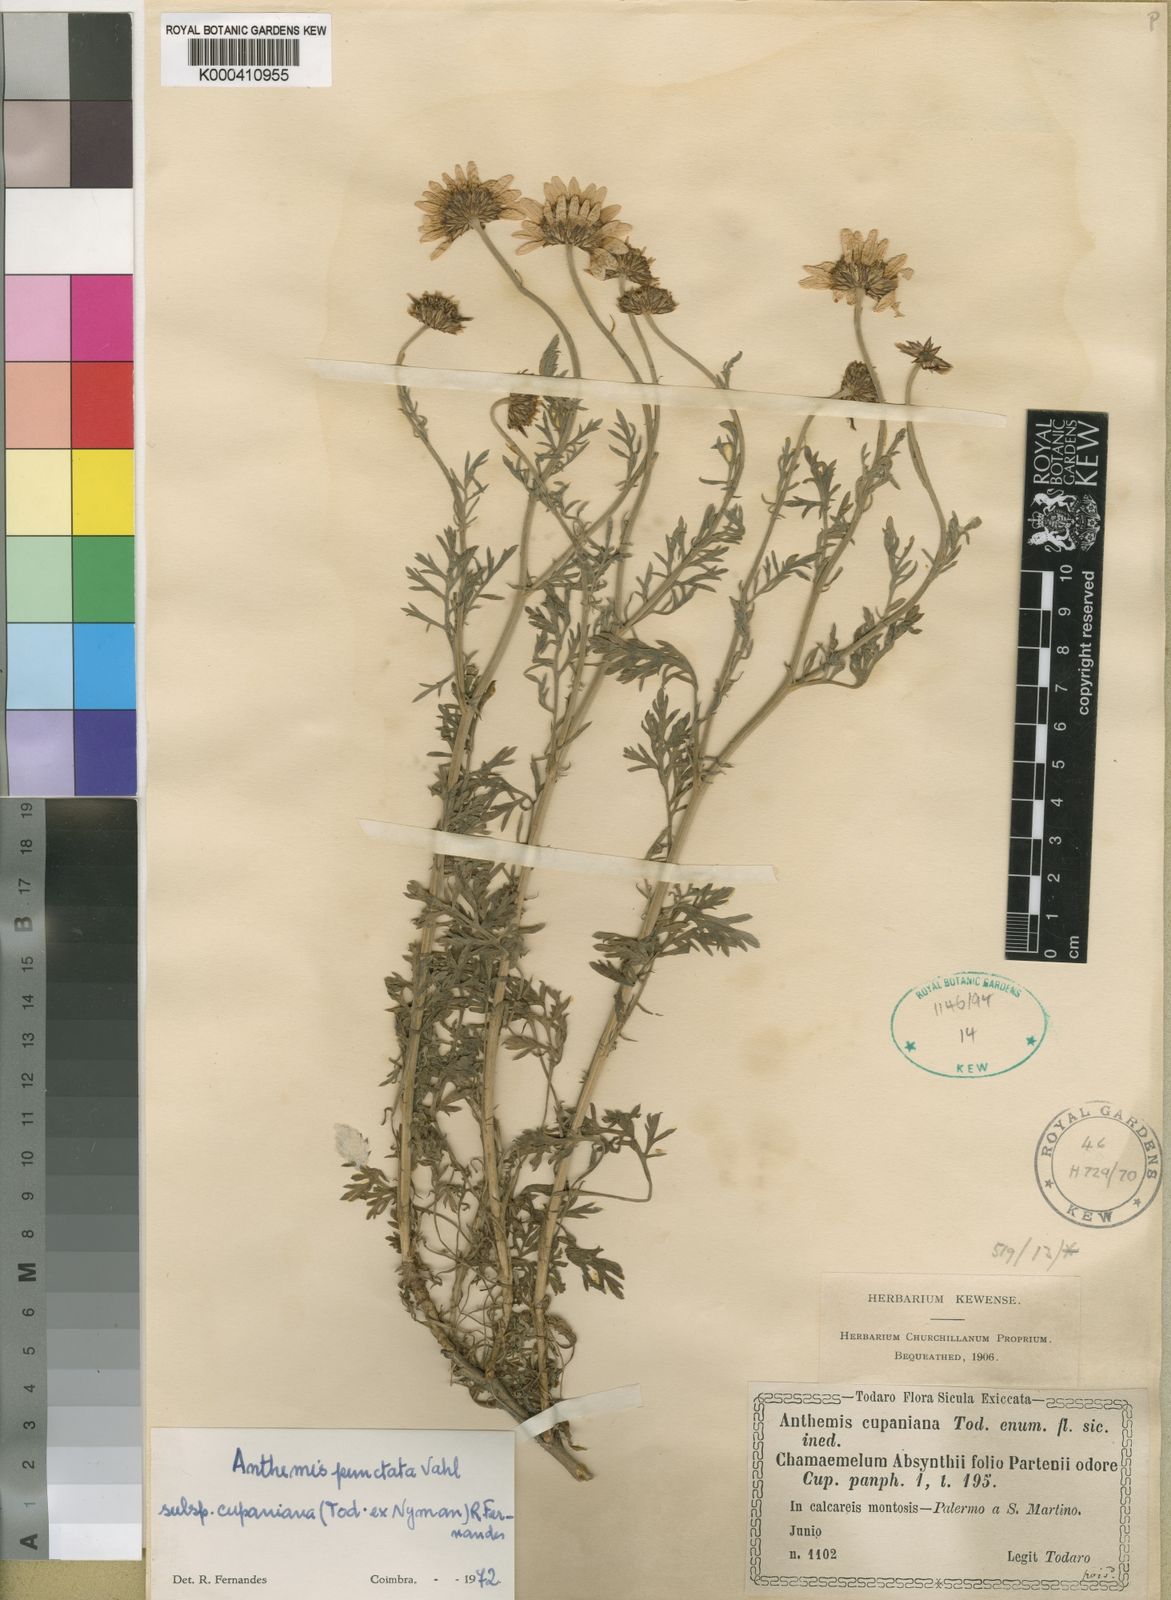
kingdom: Plantae
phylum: Tracheophyta
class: Magnoliopsida
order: Asterales
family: Asteraceae
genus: Anthemis
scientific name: Anthemis cupaniana
